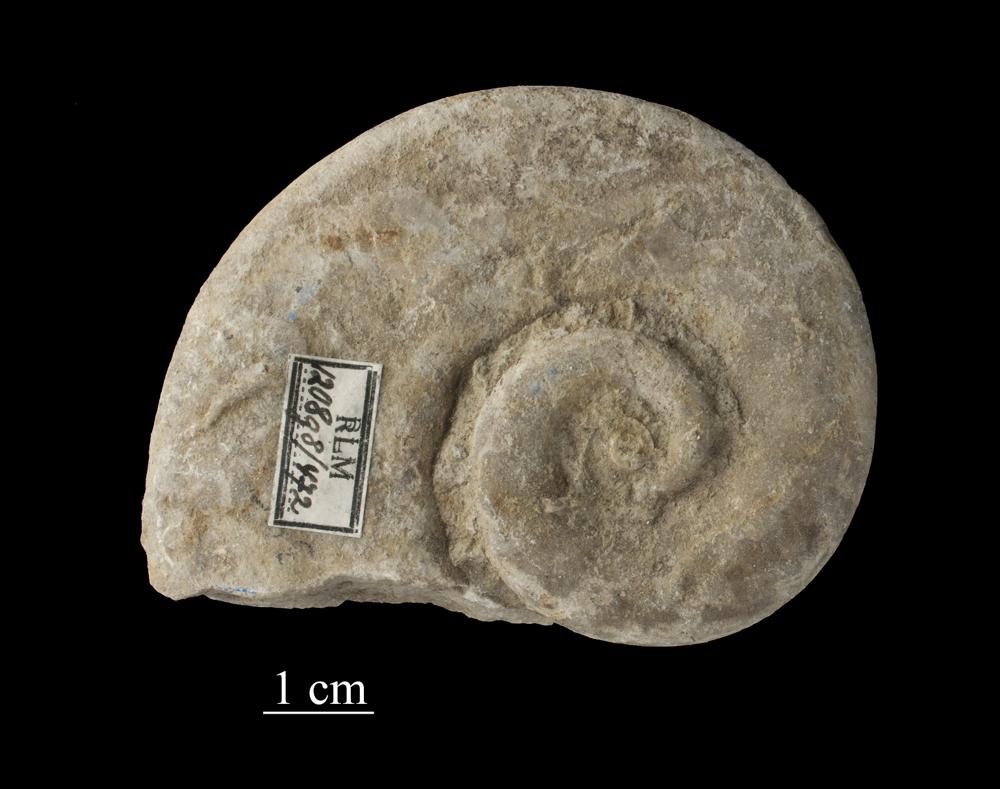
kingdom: Animalia
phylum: Mollusca
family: Macluritidae
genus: Maclurites
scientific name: Maclurites Maclurea neritoides
